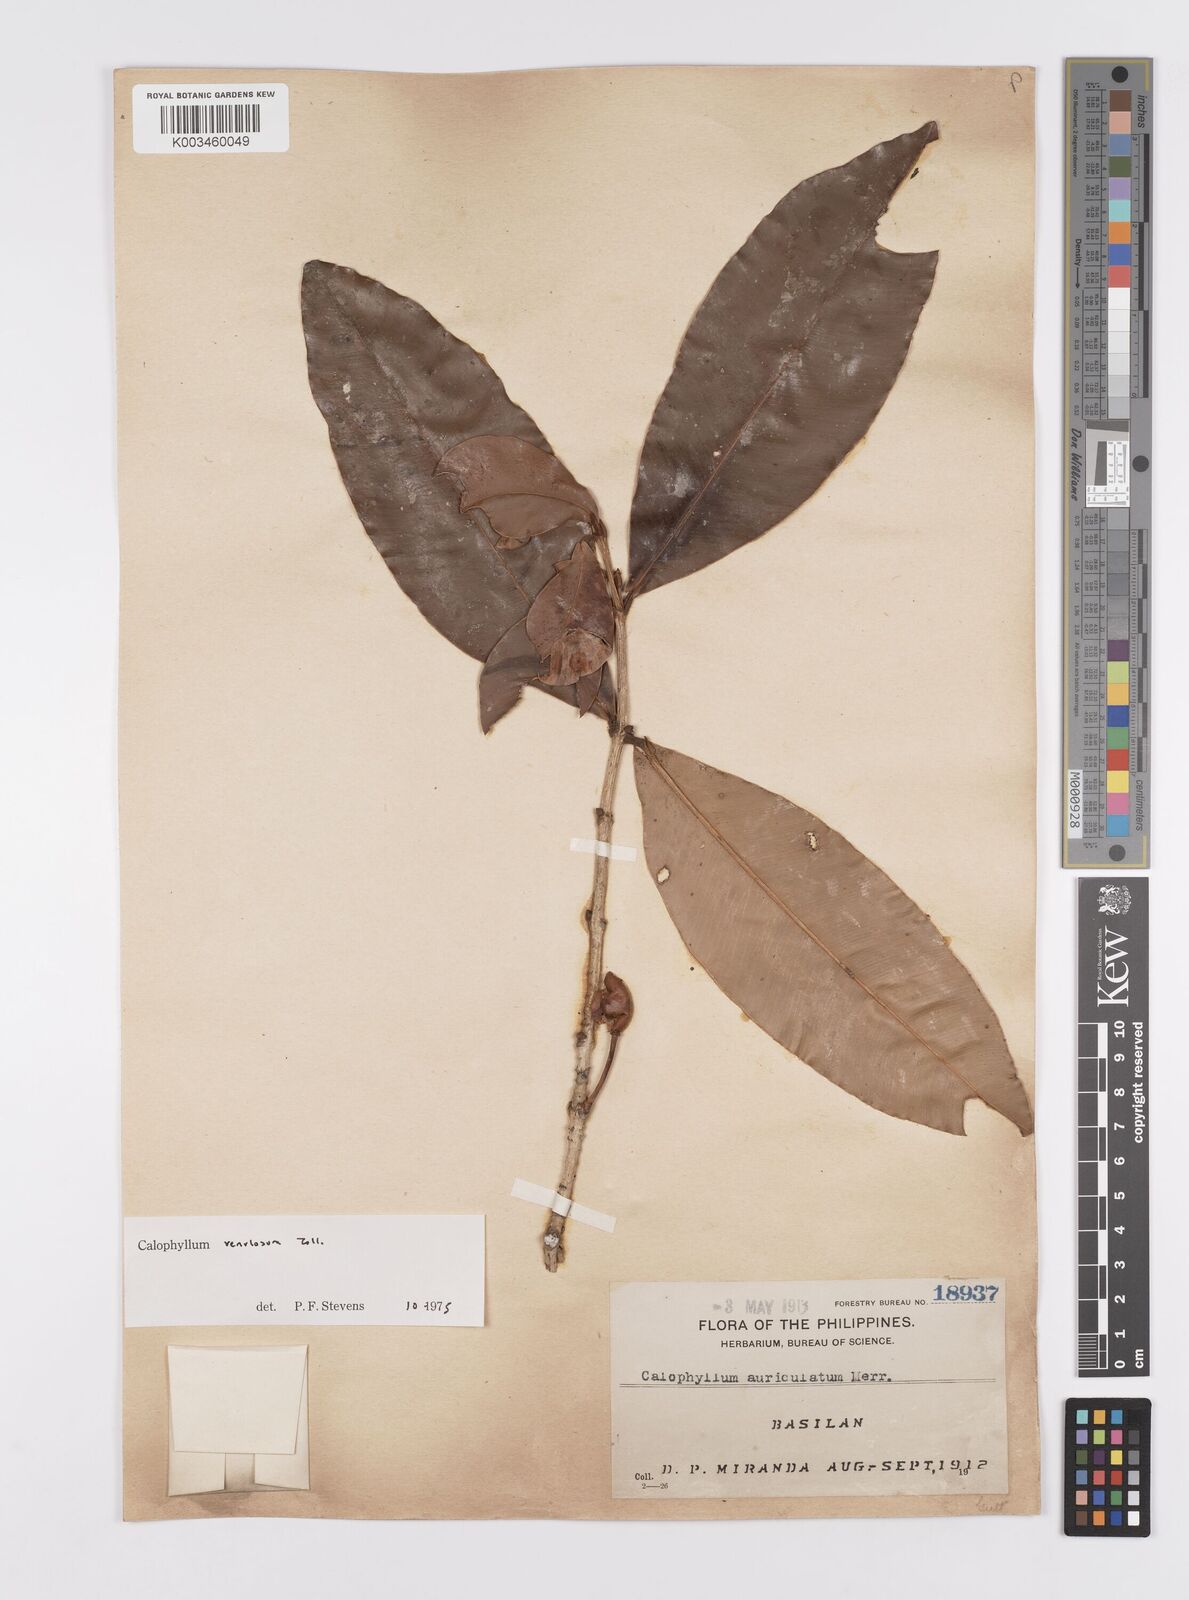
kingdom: Plantae
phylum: Tracheophyta
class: Magnoliopsida
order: Malpighiales
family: Calophyllaceae
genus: Calophyllum
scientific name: Calophyllum venulosum
